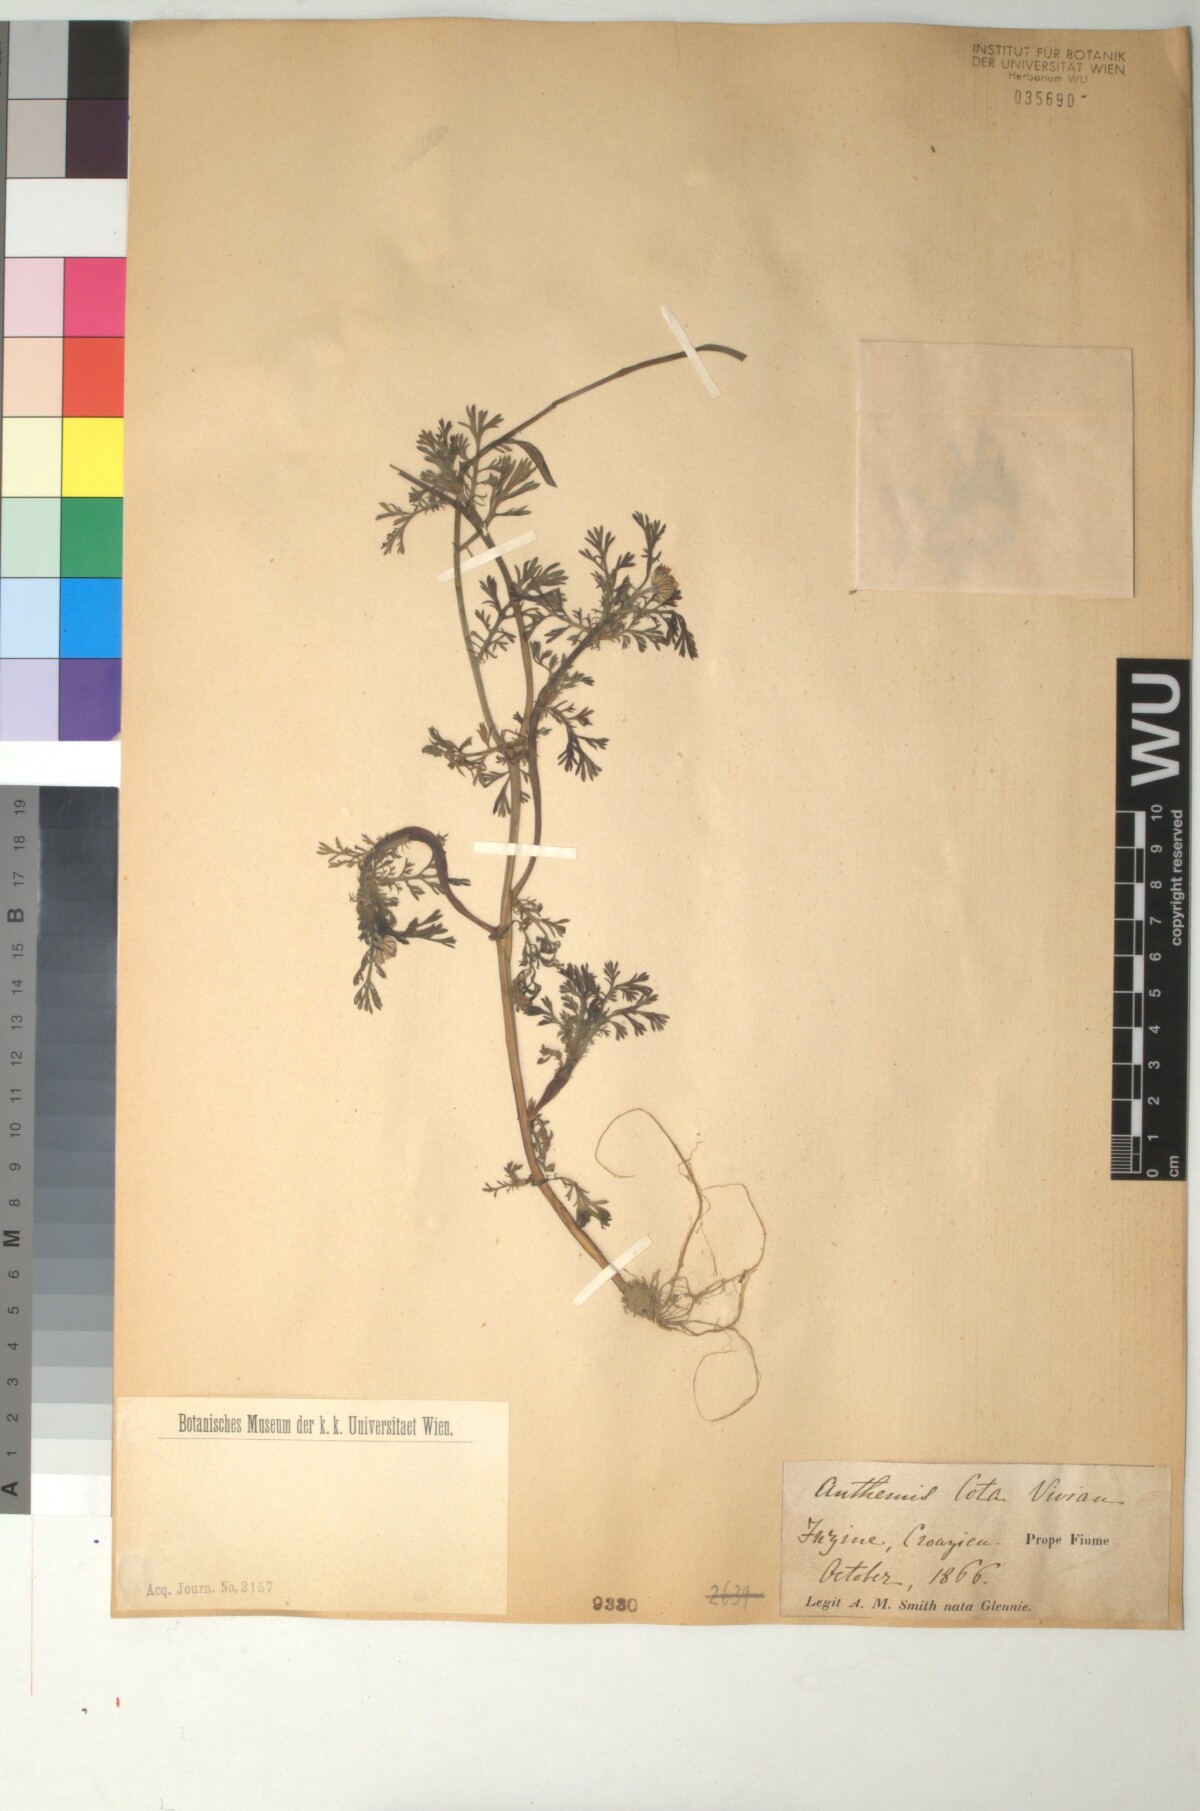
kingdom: Plantae
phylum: Tracheophyta
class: Magnoliopsida
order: Asterales
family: Asteraceae
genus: Cota
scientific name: Cota altissima
